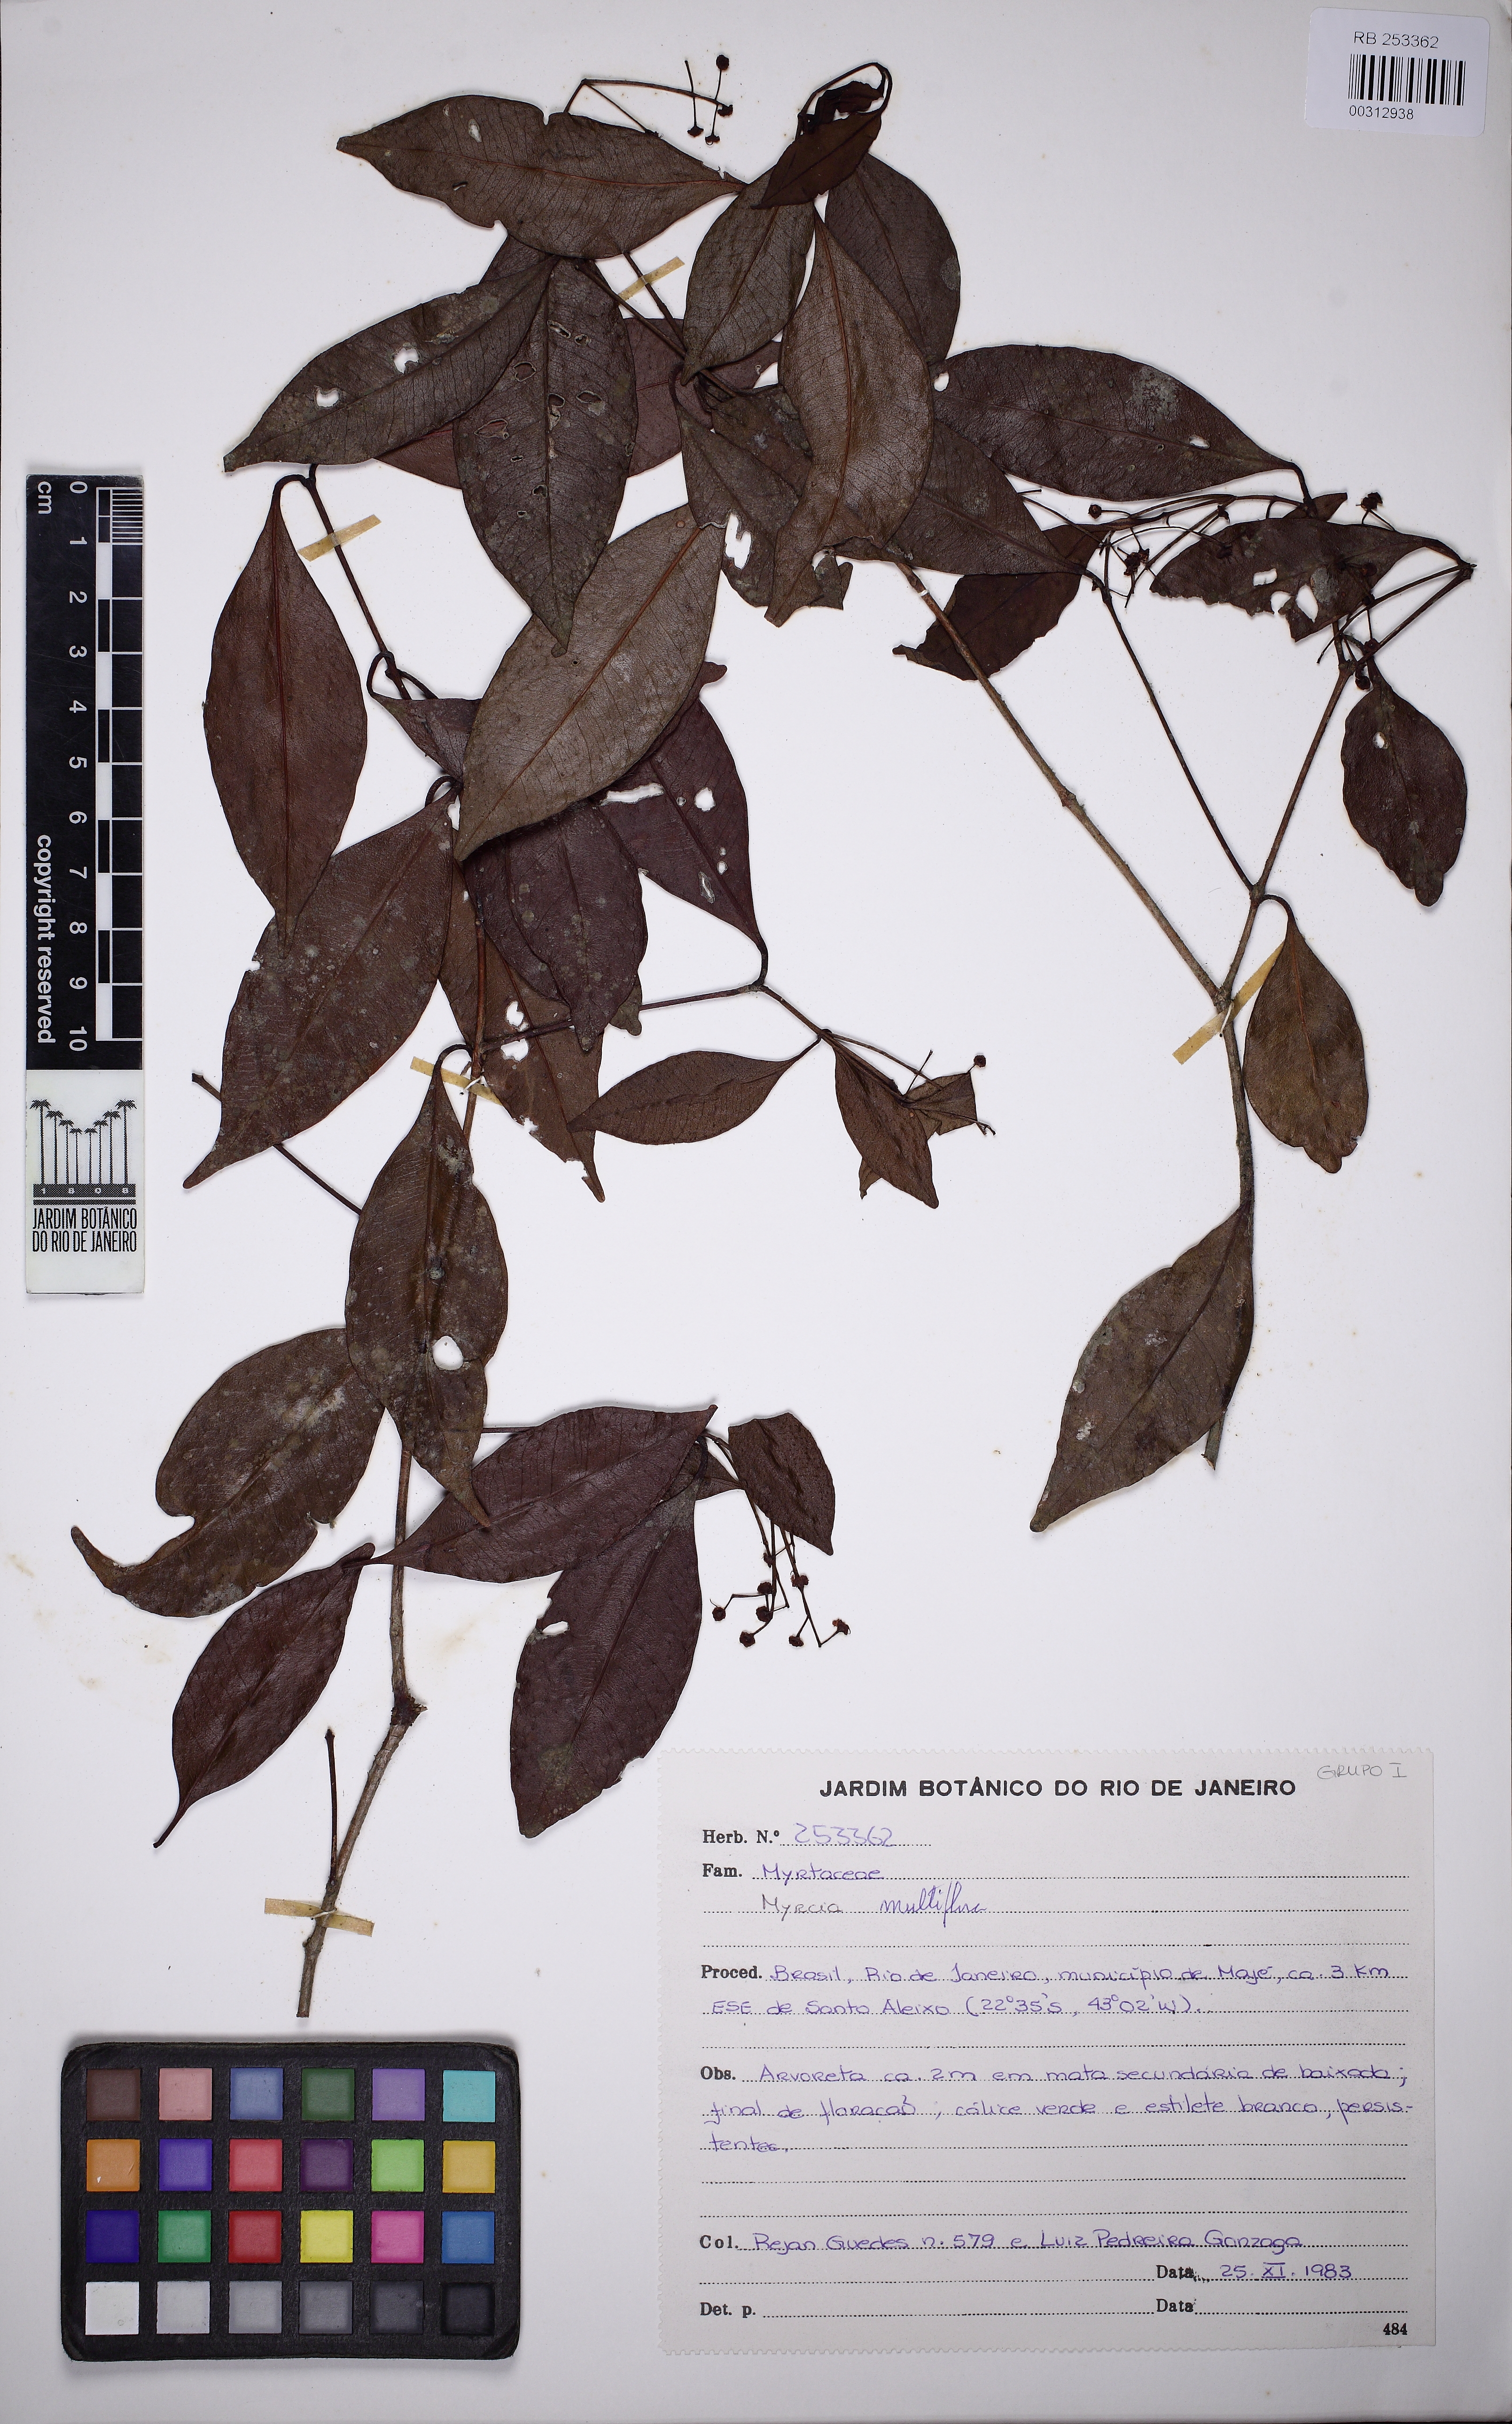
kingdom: Plantae
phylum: Tracheophyta
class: Magnoliopsida
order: Myrtales
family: Myrtaceae
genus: Myrcia
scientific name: Myrcia laxiflora
